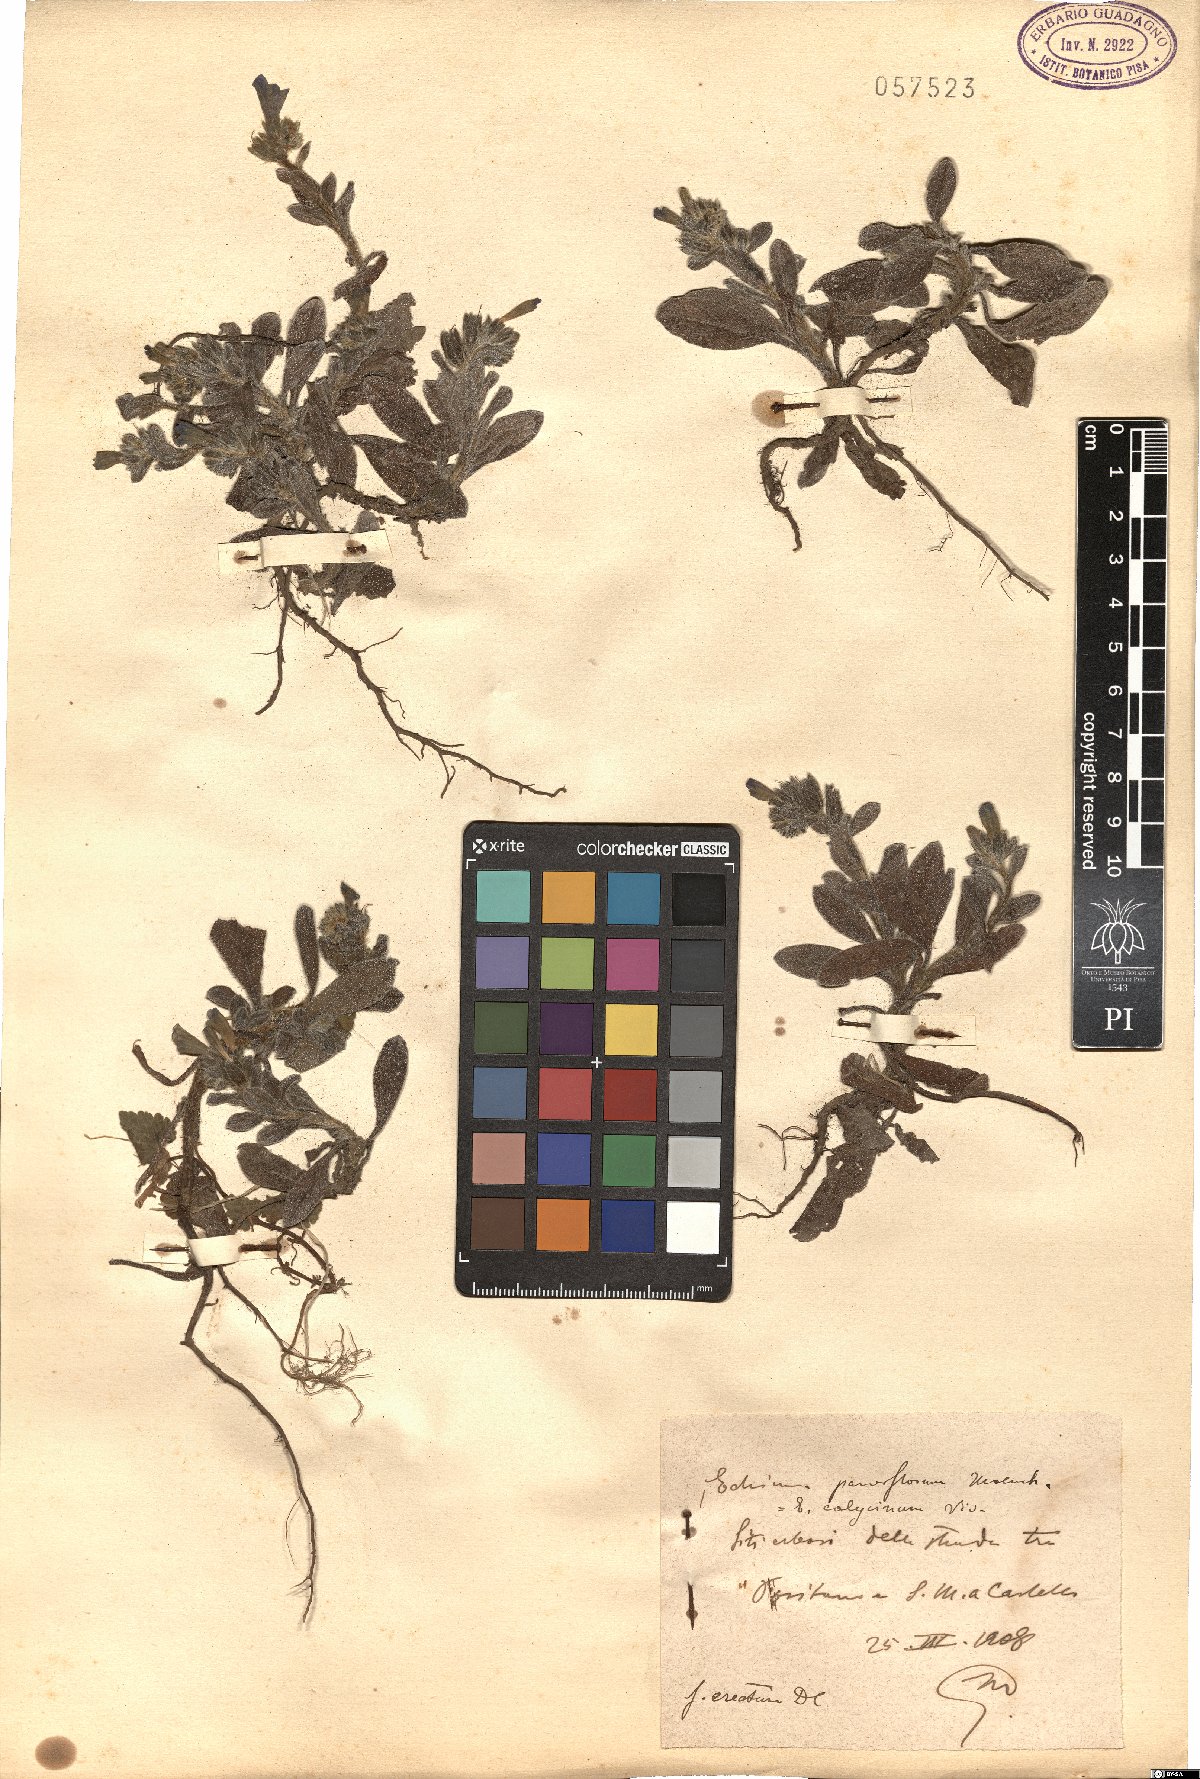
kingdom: Plantae
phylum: Tracheophyta
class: Magnoliopsida
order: Boraginales
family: Boraginaceae
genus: Echium
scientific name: Echium parviflorum
